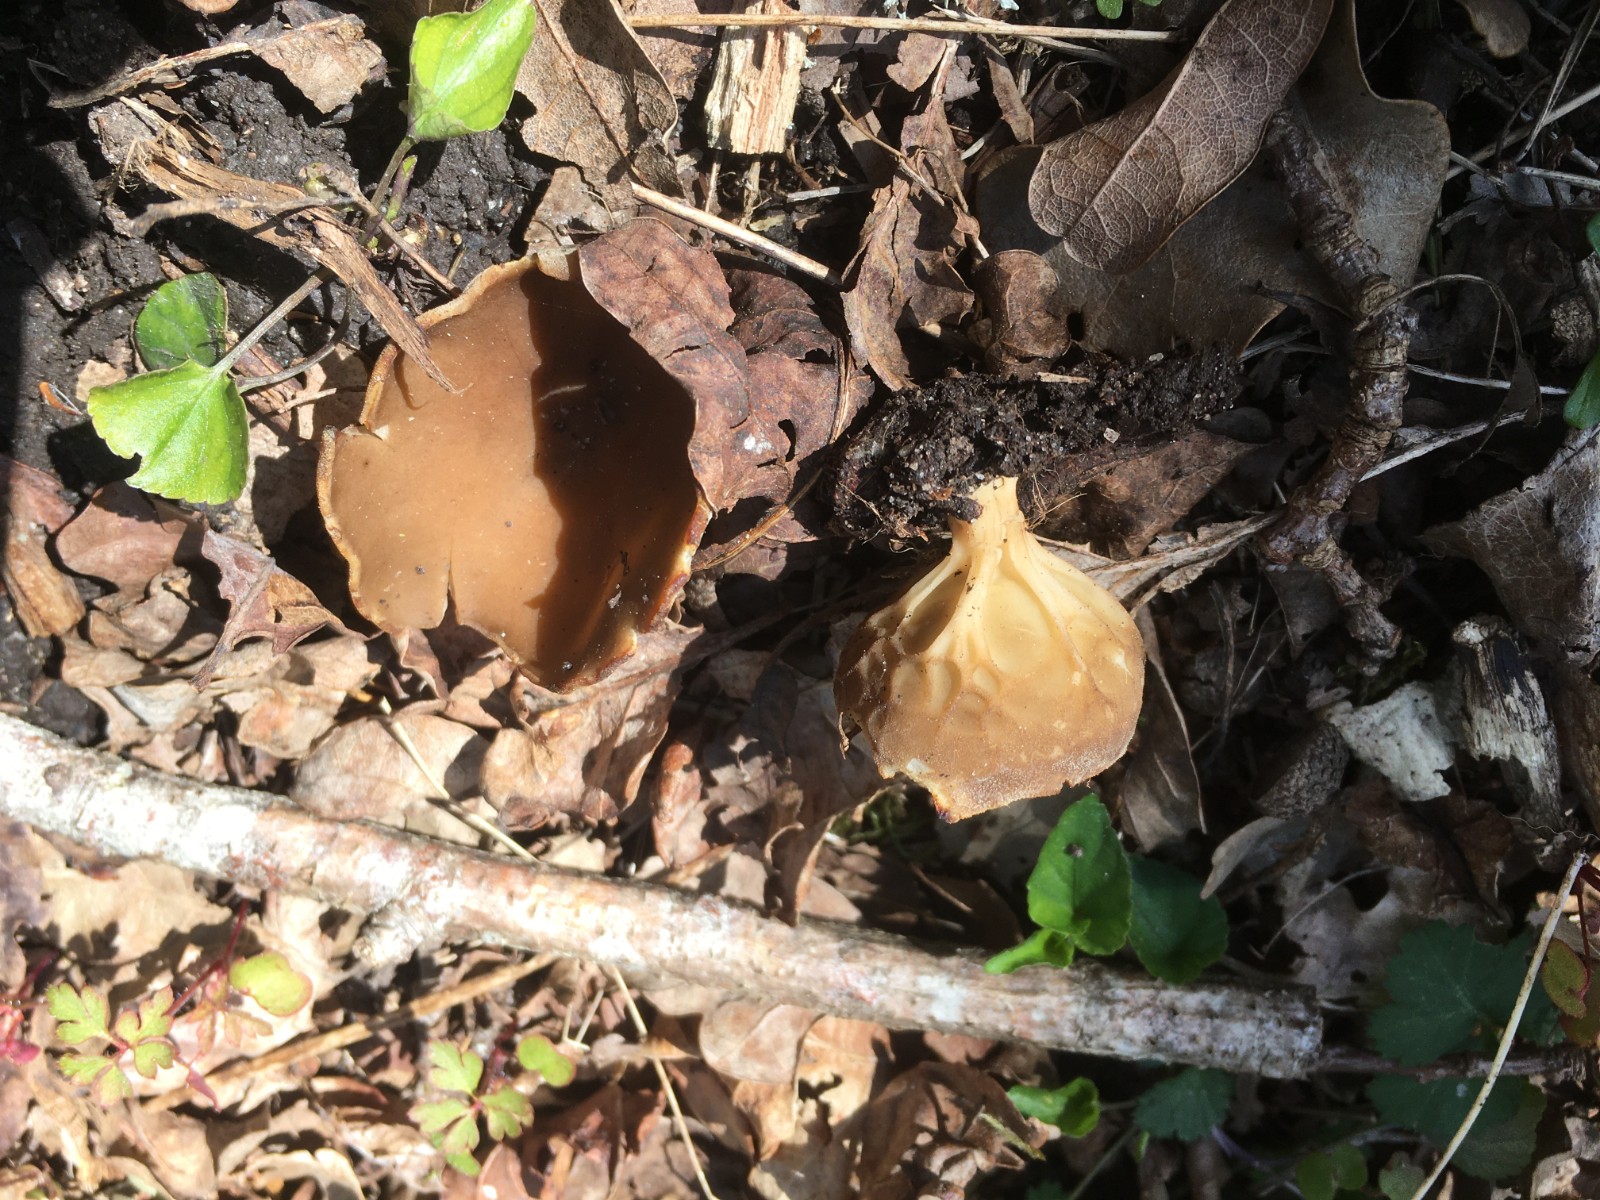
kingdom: Fungi
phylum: Ascomycota
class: Pezizomycetes
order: Pezizales
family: Helvellaceae
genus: Helvella
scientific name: Helvella acetabulum
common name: pokal-foldhat
